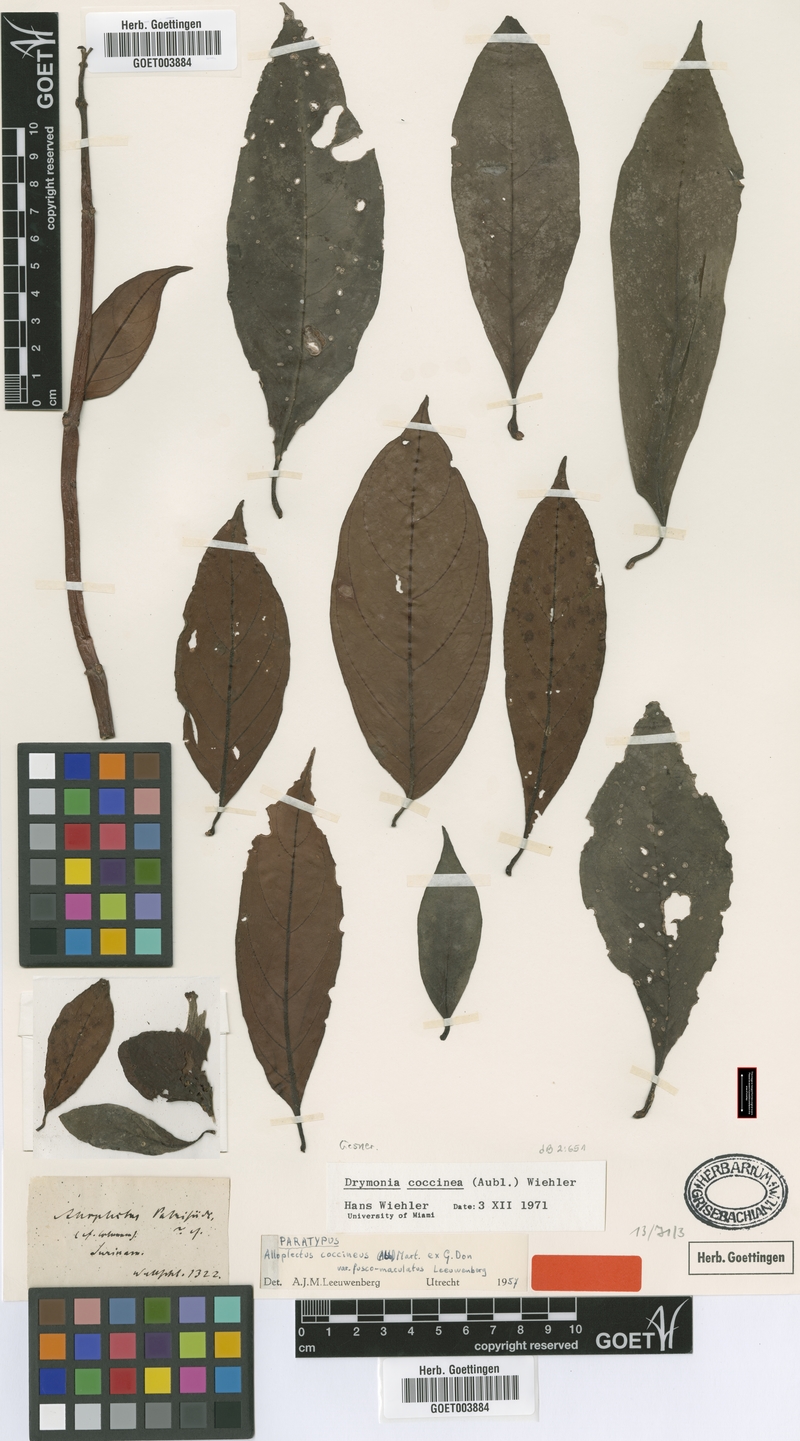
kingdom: Plantae
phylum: Tracheophyta
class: Magnoliopsida
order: Lamiales
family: Gesneriaceae
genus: Drymonia
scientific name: Drymonia coccinea
